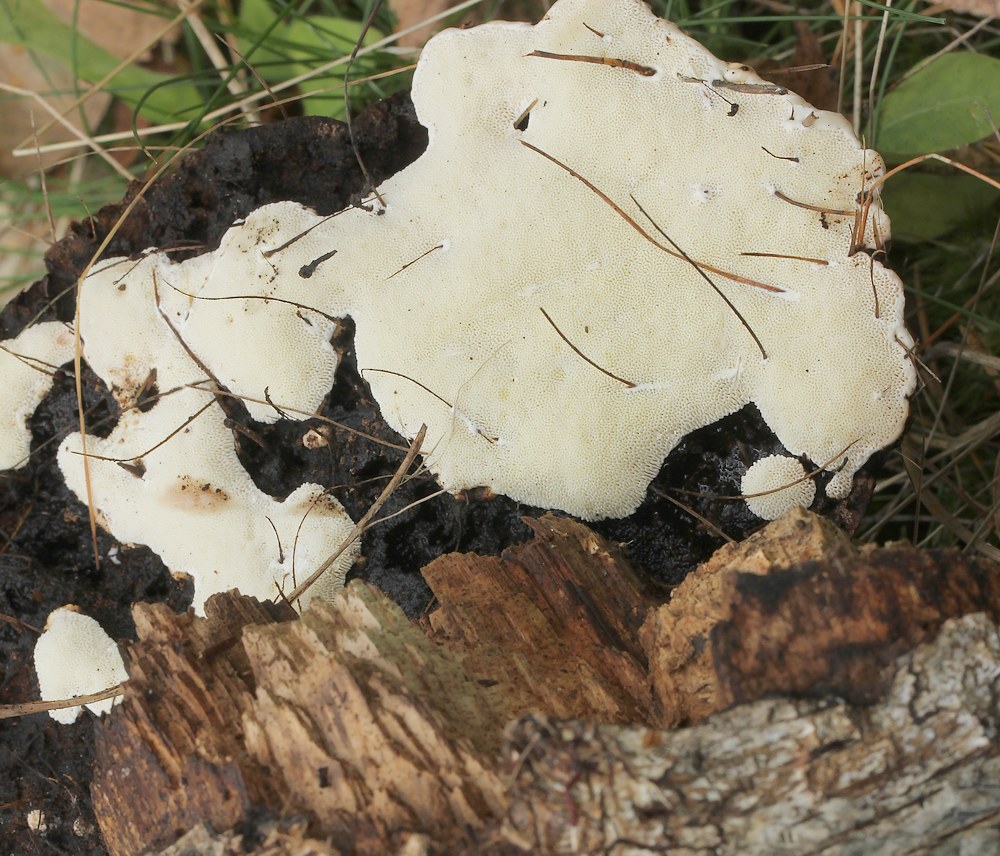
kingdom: Fungi
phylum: Basidiomycota
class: Agaricomycetes
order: Polyporales
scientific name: Polyporales
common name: poresvampordenen
